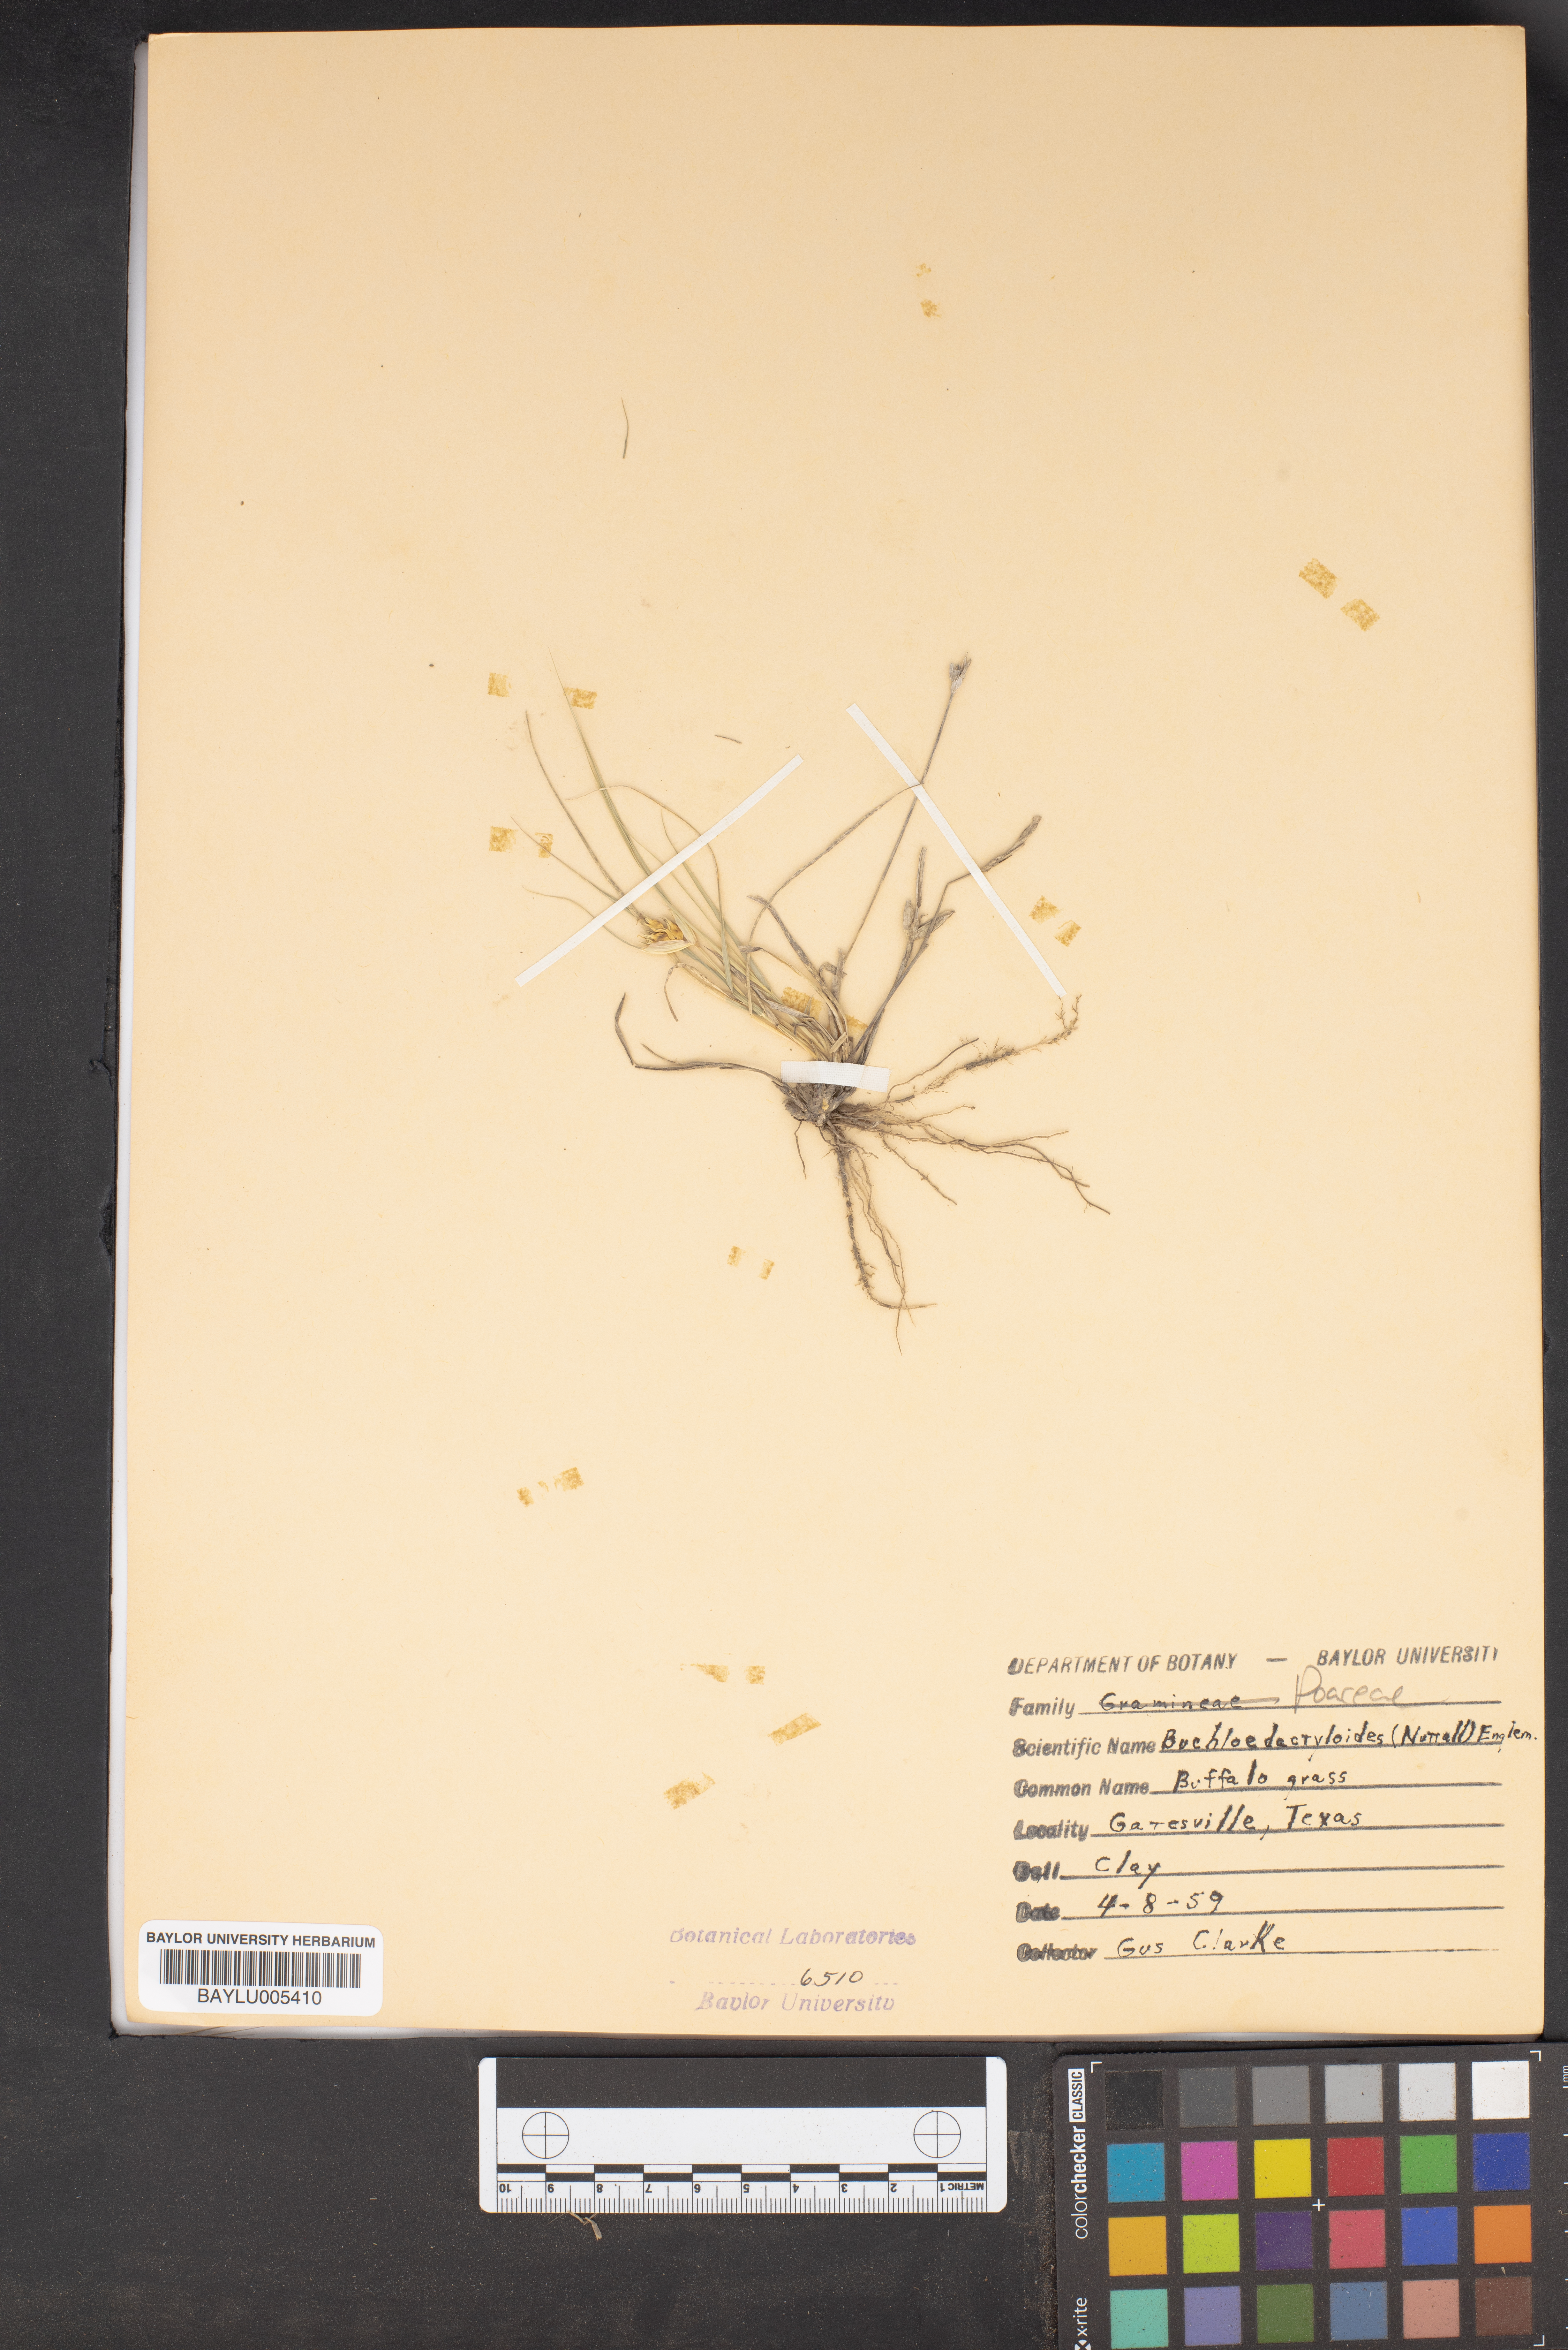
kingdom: Plantae
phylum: Tracheophyta
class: Liliopsida
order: Poales
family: Poaceae
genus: Bouteloua
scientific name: Bouteloua dactyloides
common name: Buffalo grass
